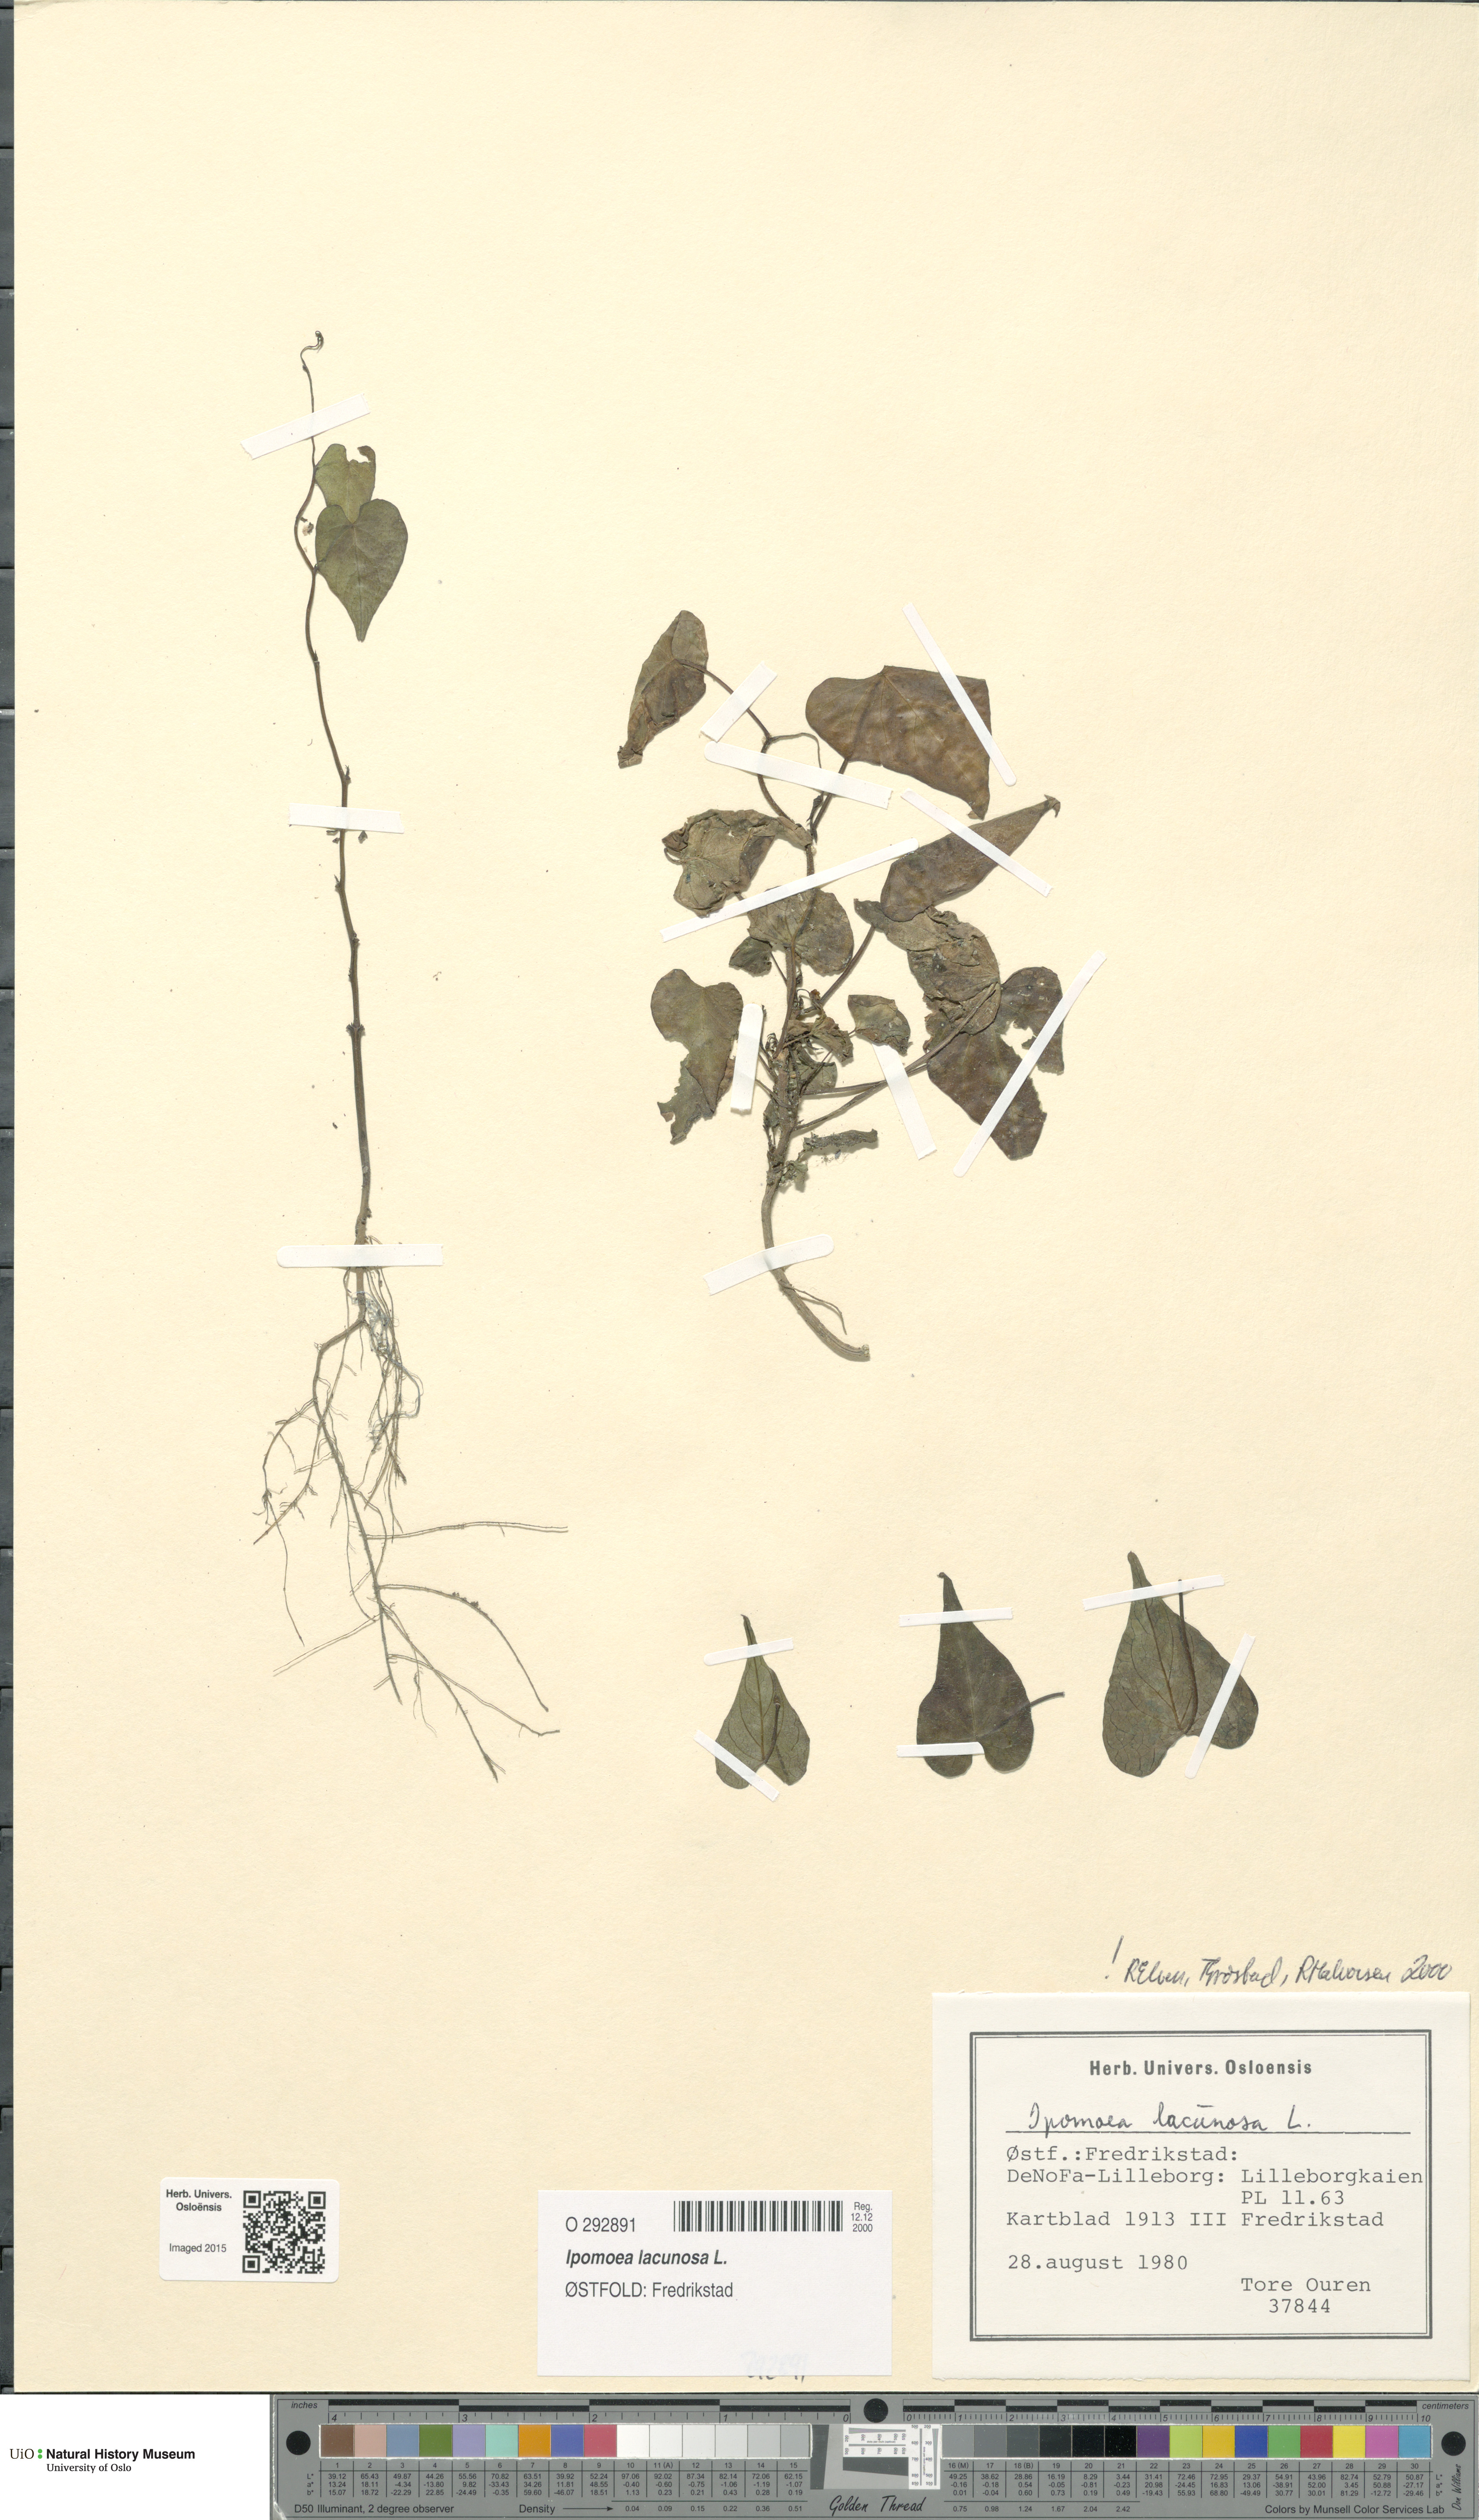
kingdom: Plantae
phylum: Tracheophyta
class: Magnoliopsida
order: Solanales
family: Convolvulaceae
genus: Ipomoea
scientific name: Ipomoea lacunosa
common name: White morning-glory
